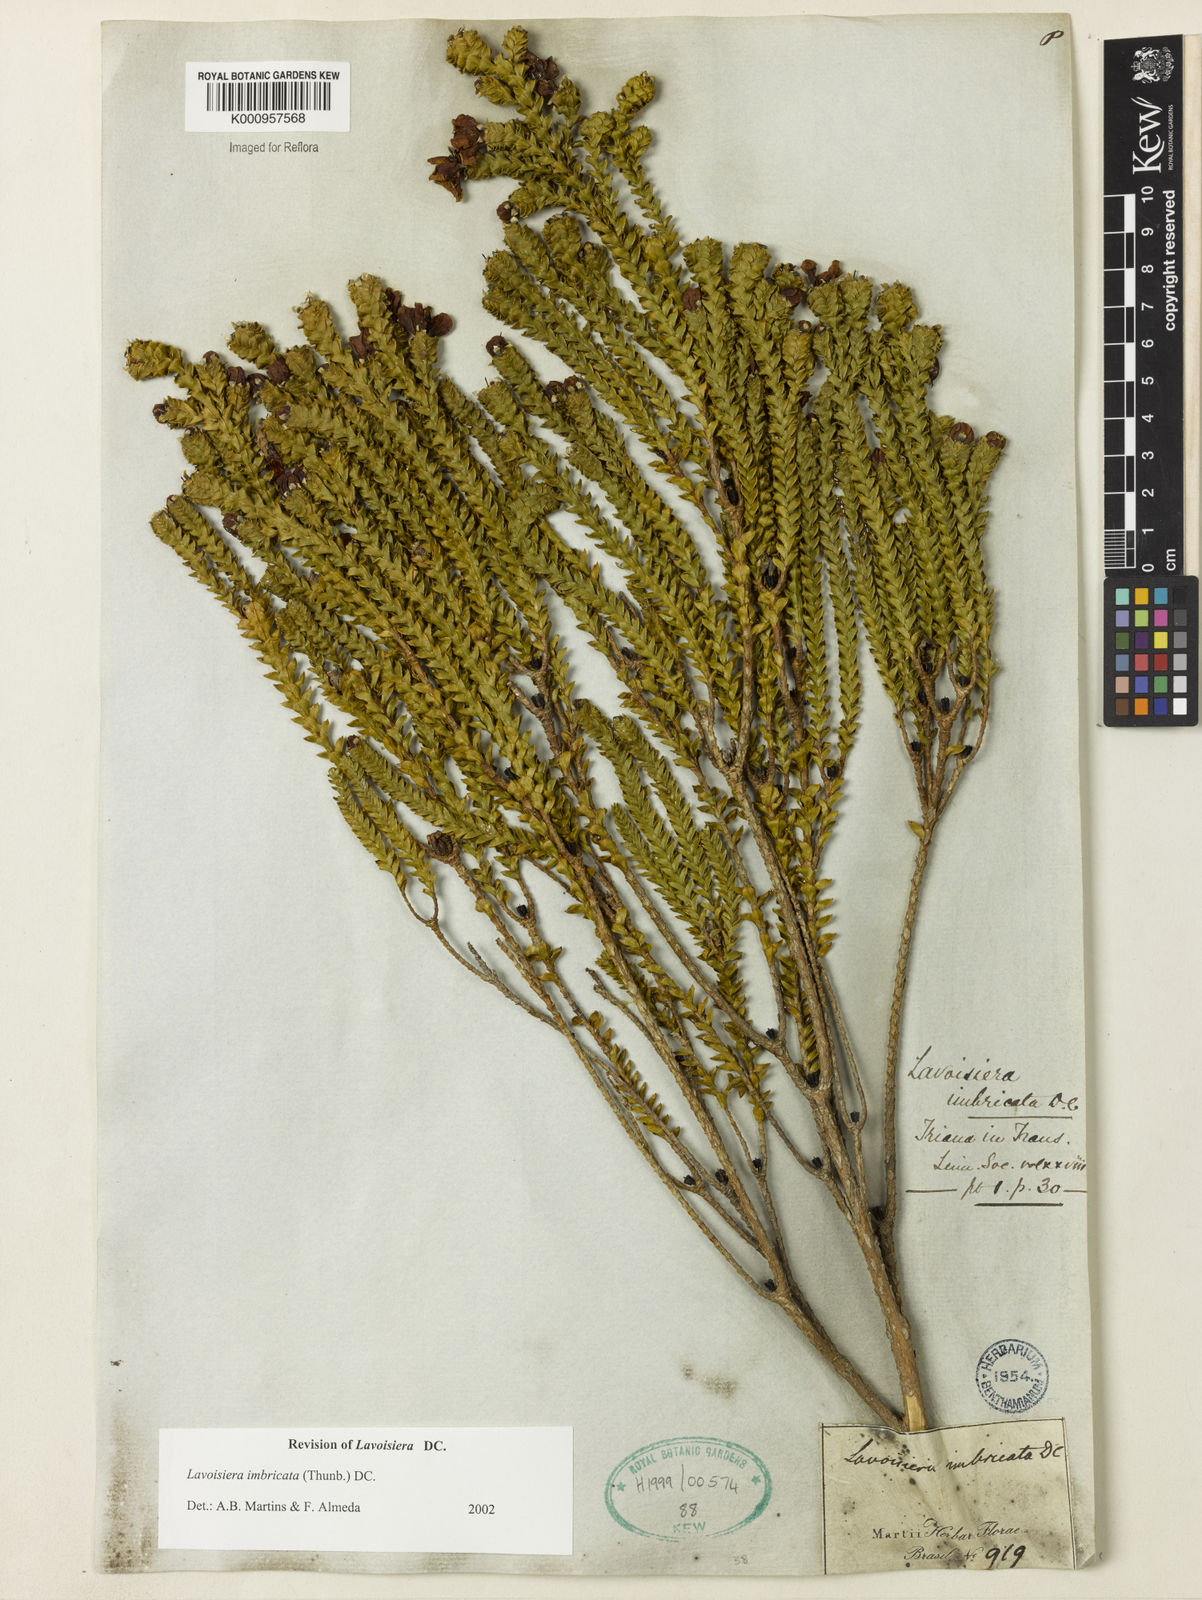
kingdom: Plantae
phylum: Tracheophyta
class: Magnoliopsida
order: Myrtales
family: Melastomataceae
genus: Microlicia
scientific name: Microlicia cataphracta
